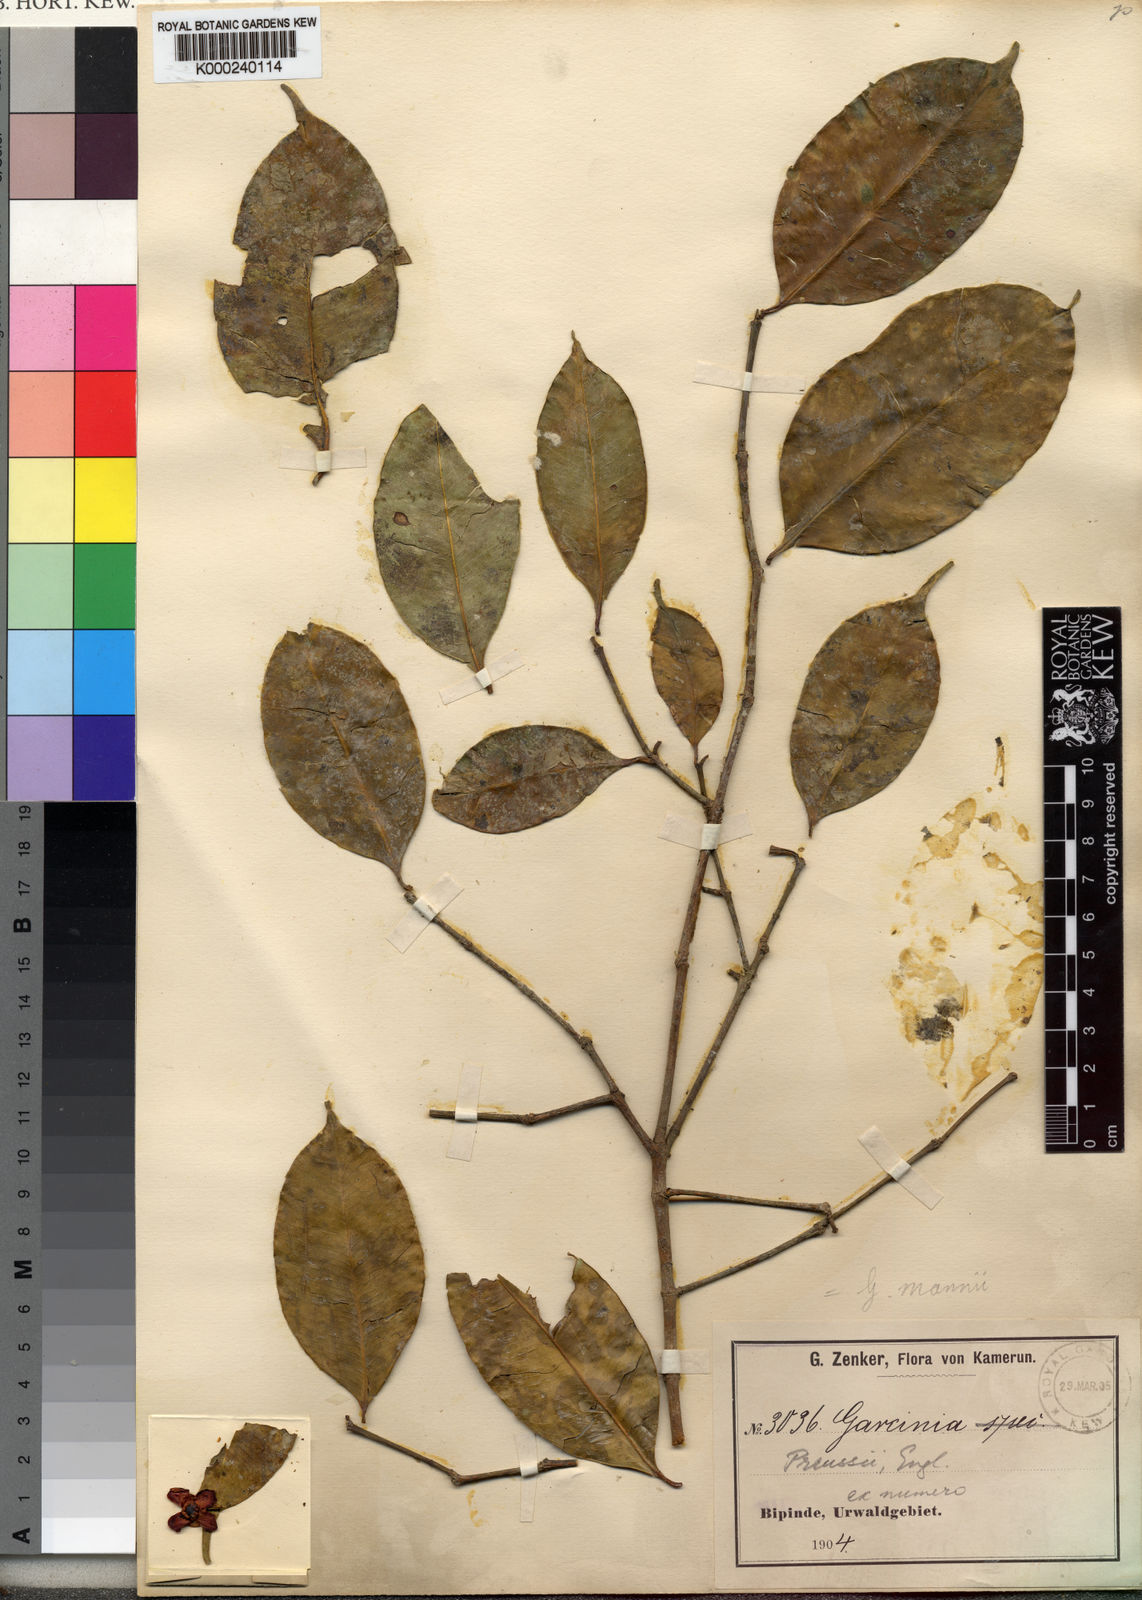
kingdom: Plantae
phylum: Tracheophyta
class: Magnoliopsida
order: Malpighiales
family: Clusiaceae
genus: Garcinia
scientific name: Garcinia mannii
